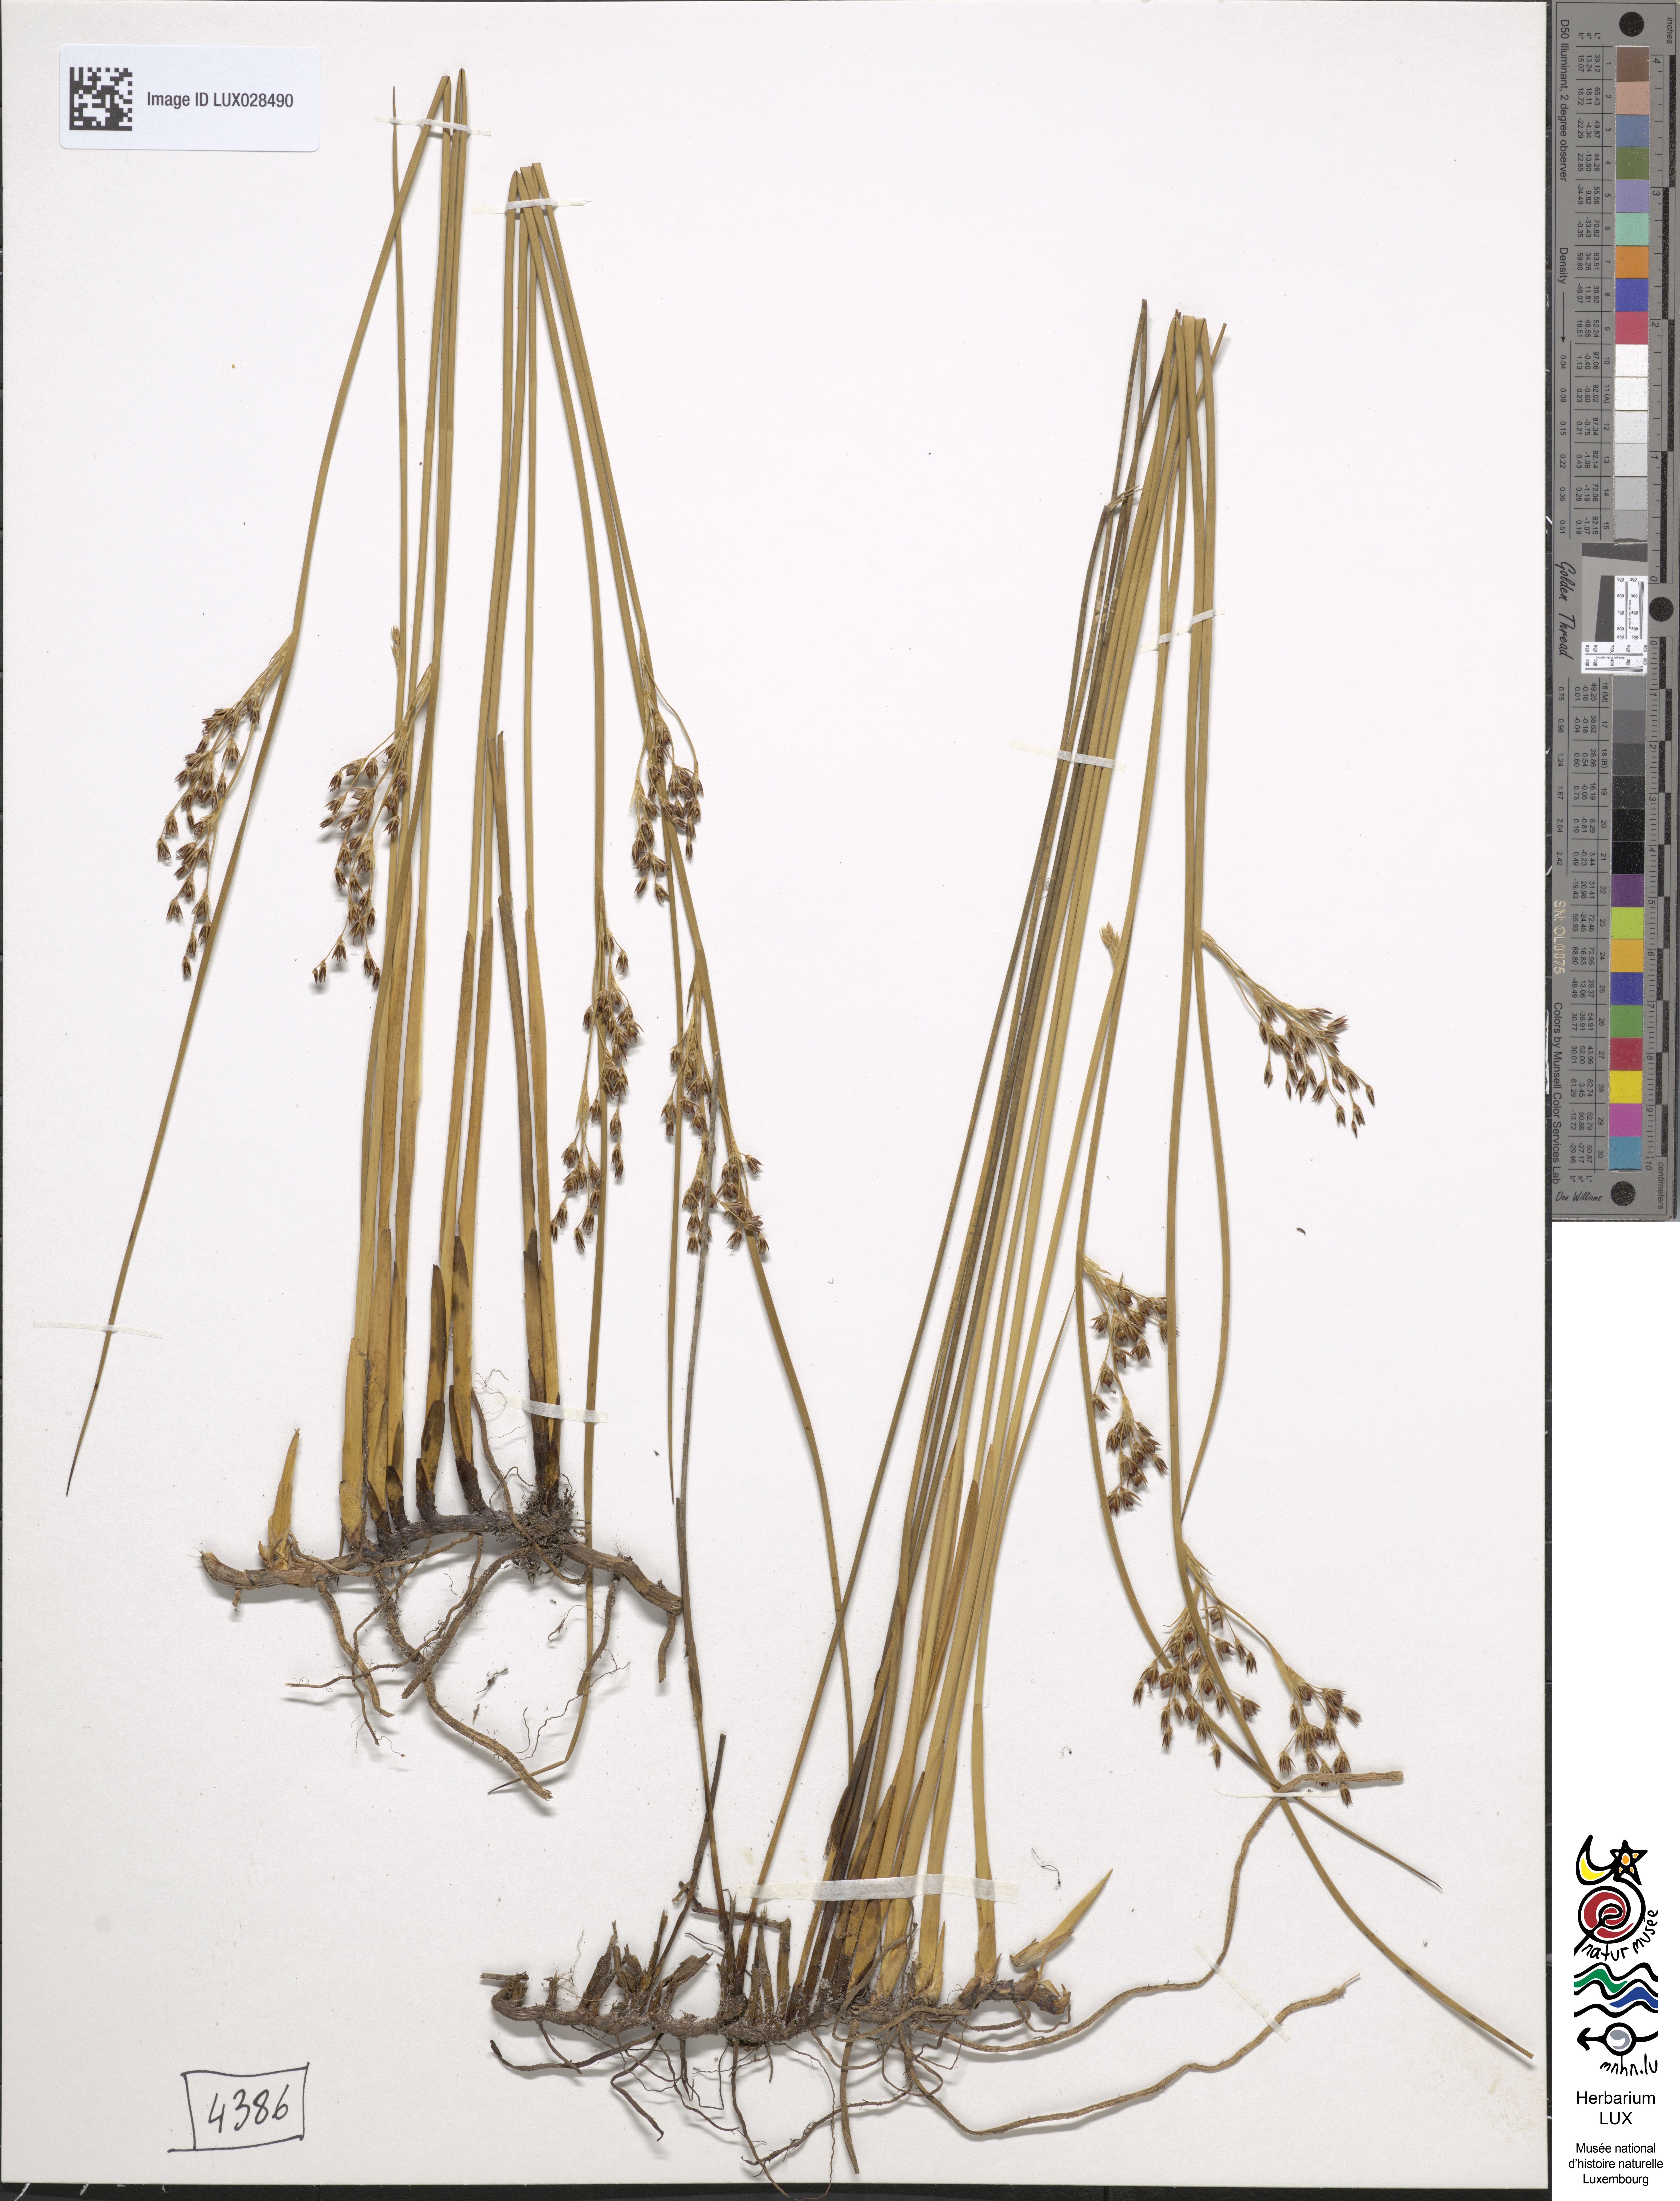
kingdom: Plantae
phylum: Tracheophyta
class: Liliopsida
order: Poales
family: Juncaceae
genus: Juncus
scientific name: Juncus balticus
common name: Baltic rush
